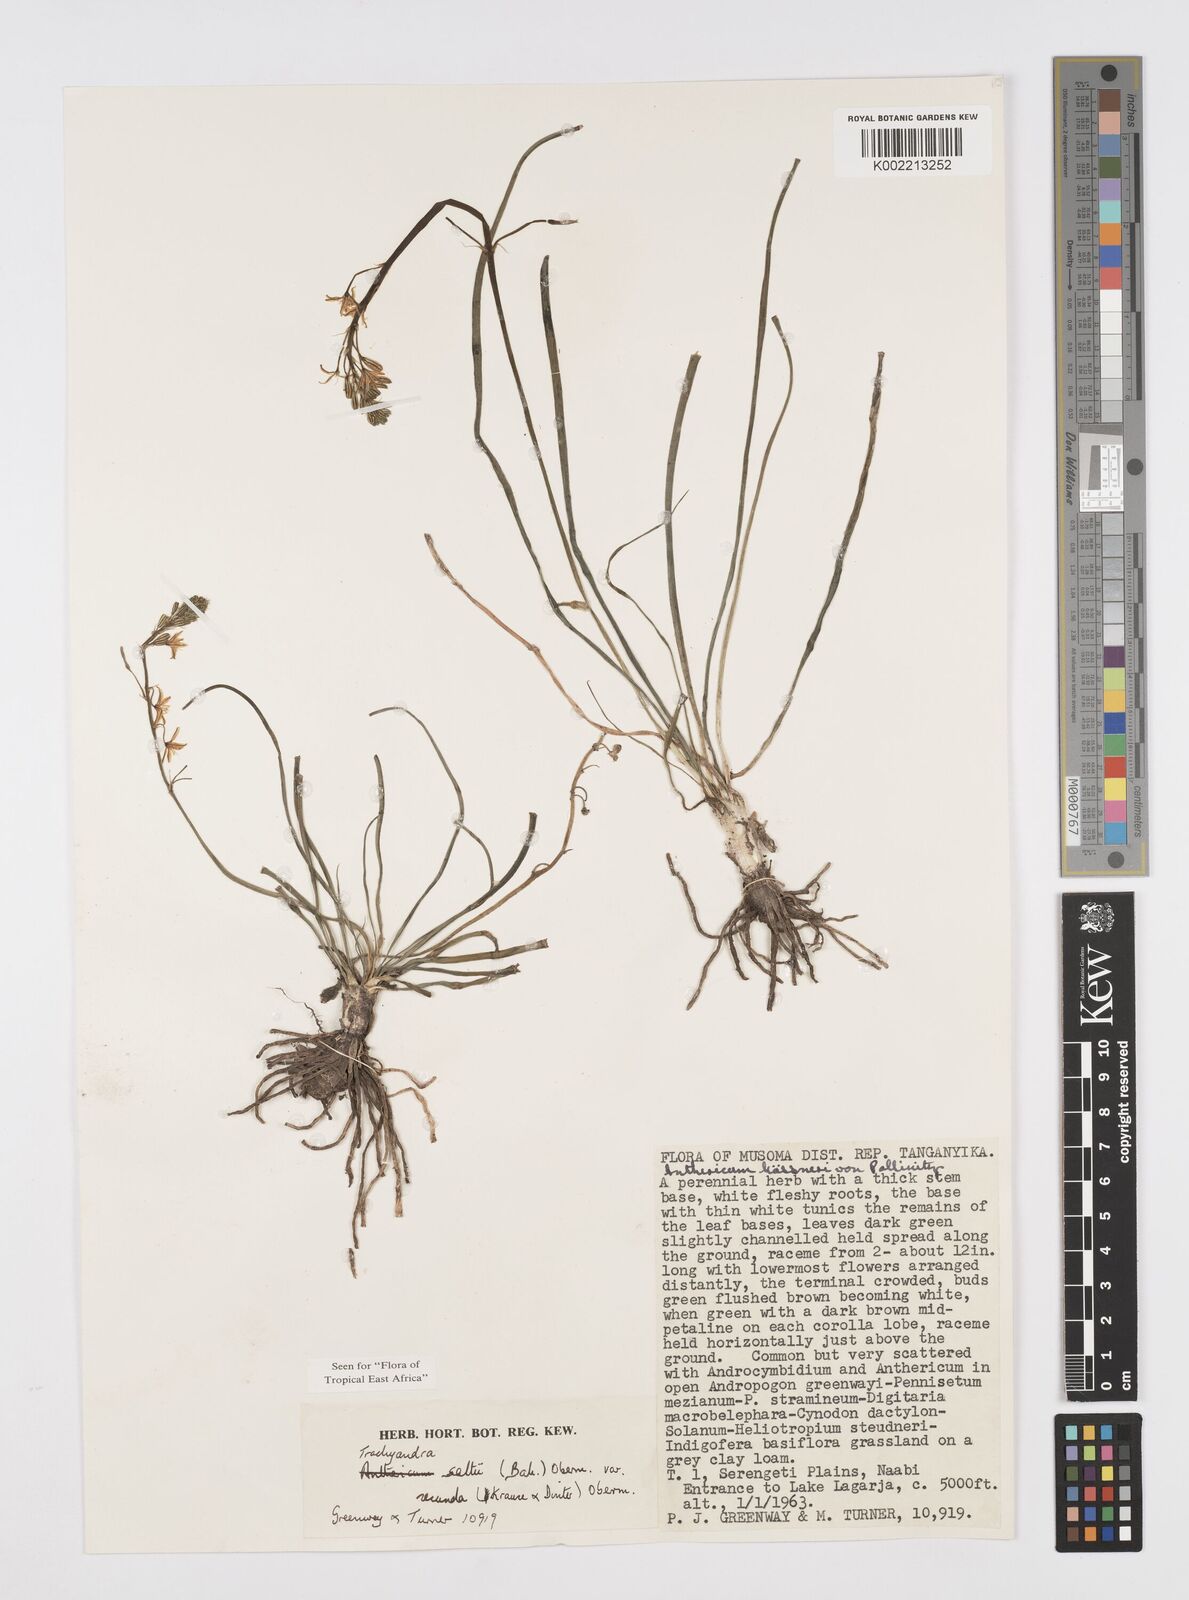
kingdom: Plantae
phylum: Tracheophyta
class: Liliopsida
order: Asparagales
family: Asphodelaceae
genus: Trachyandra
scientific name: Trachyandra saltii
